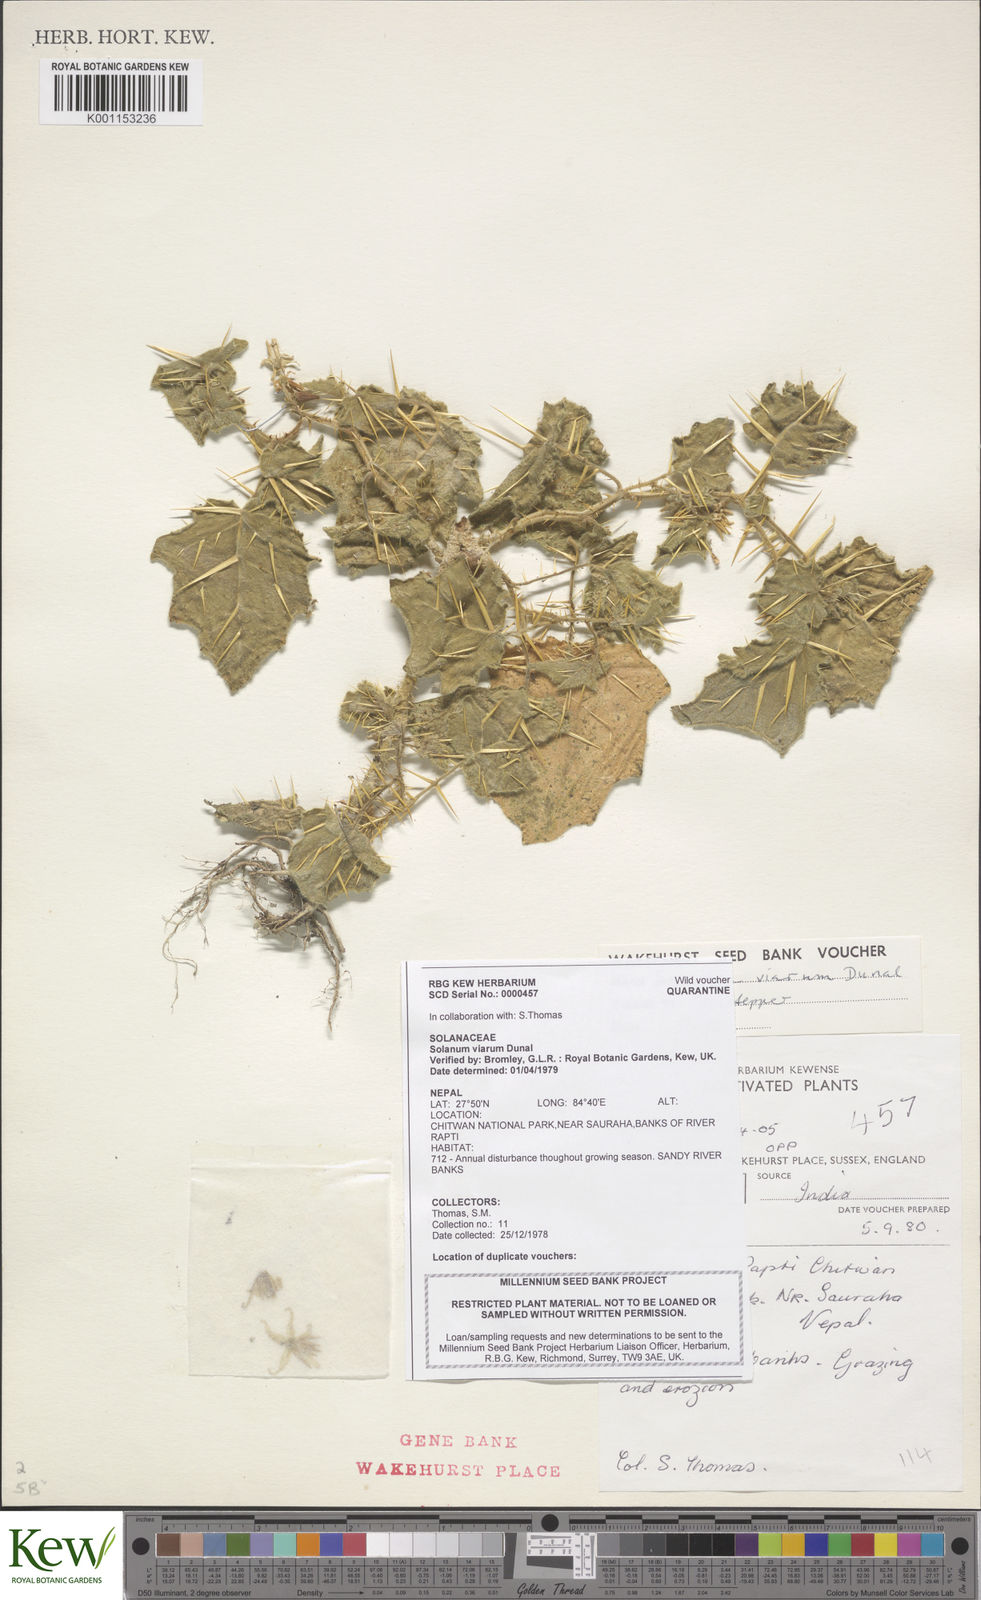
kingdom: Plantae
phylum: Tracheophyta
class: Magnoliopsida
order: Solanales
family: Solanaceae
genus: Solanum
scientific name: Solanum viarum
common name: Tropical soda apple
